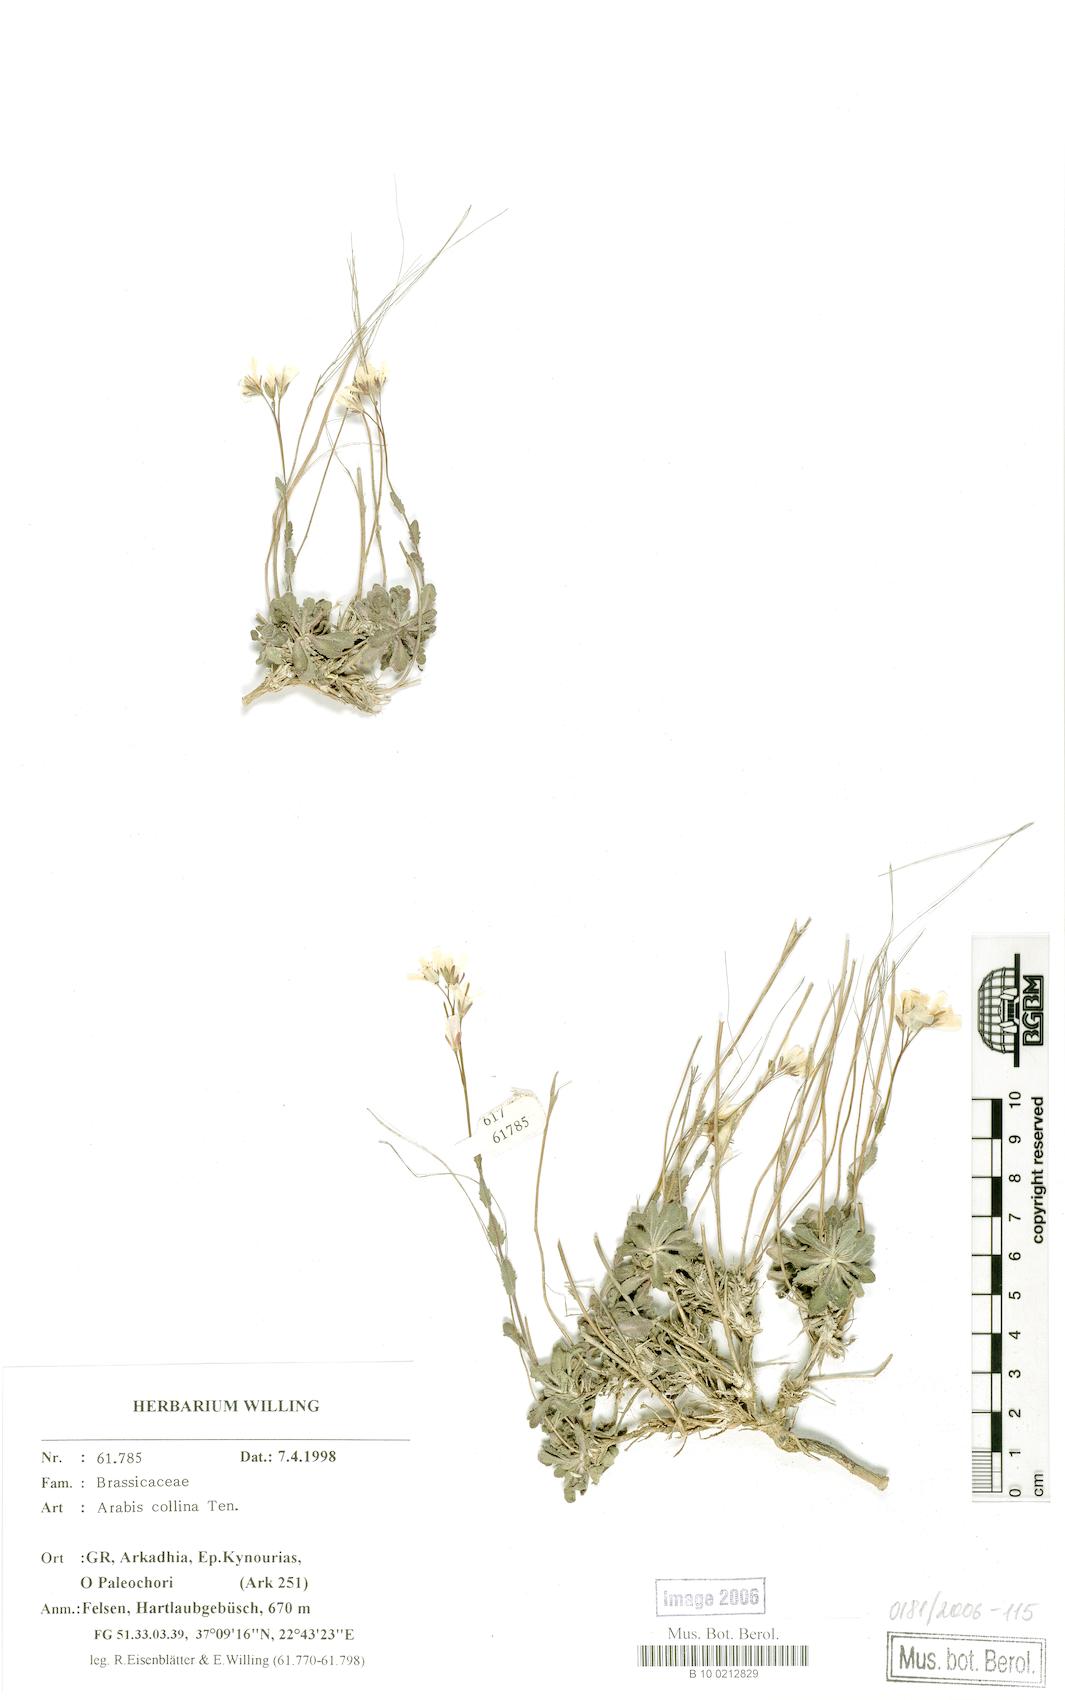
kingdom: Plantae
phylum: Tracheophyta
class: Magnoliopsida
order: Brassicales
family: Brassicaceae
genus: Arabis
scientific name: Arabis collina
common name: Rosy cress
